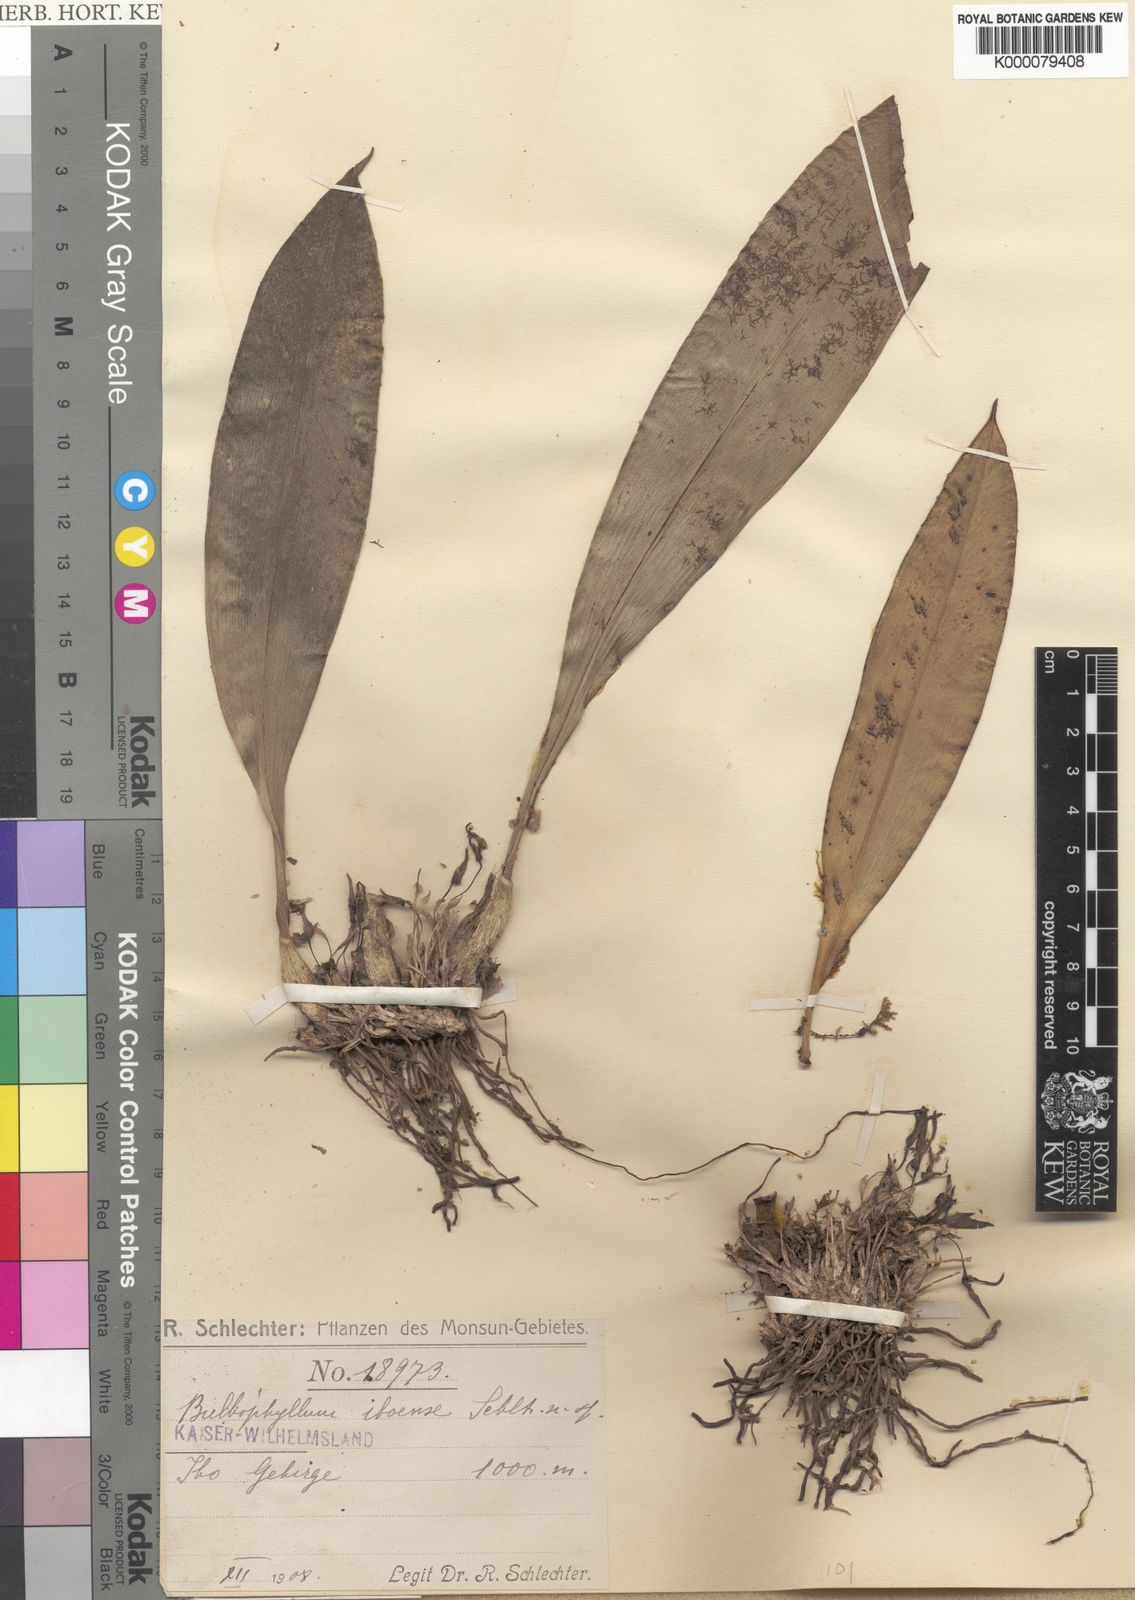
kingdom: Plantae
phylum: Tracheophyta
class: Liliopsida
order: Asparagales
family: Orchidaceae
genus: Bulbophyllum
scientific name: Bulbophyllum versteegii
